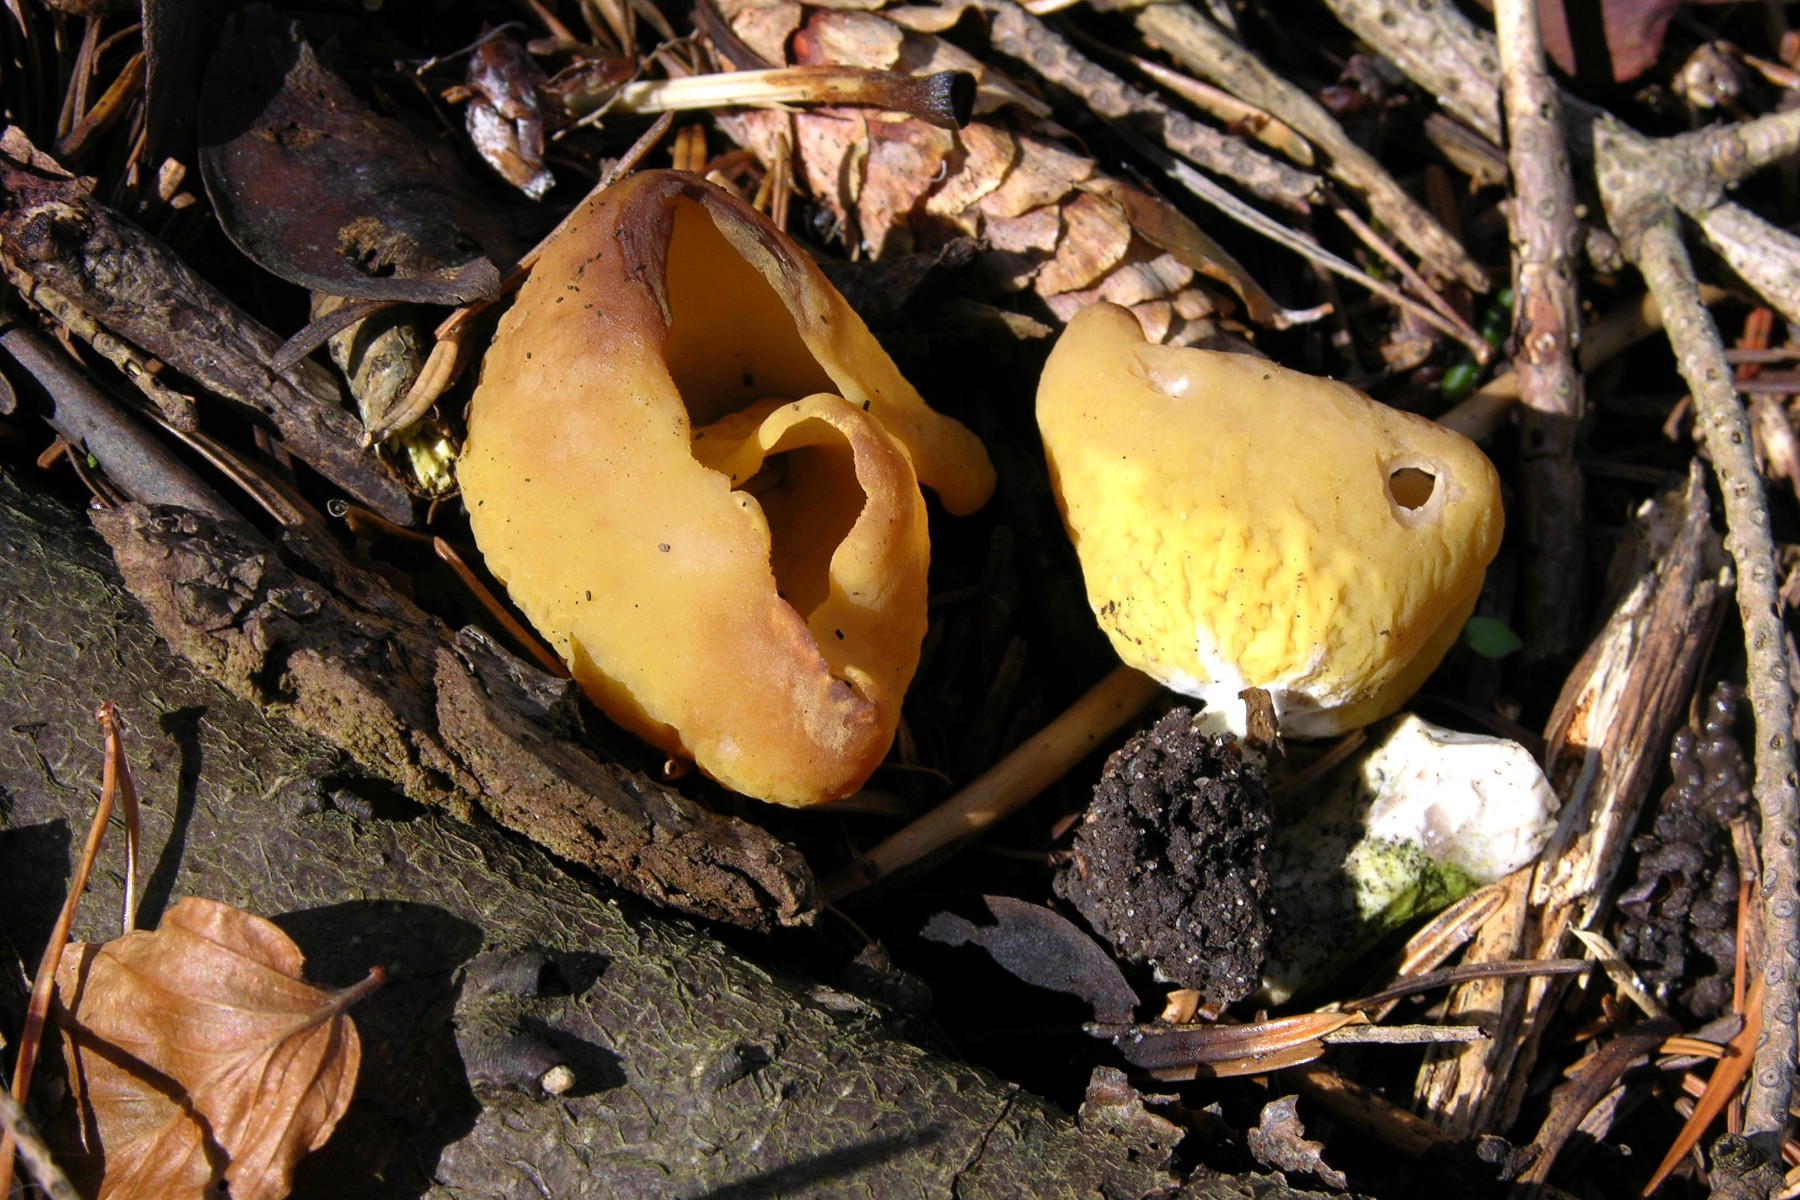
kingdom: Fungi
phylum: Ascomycota
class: Pezizomycetes
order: Pezizales
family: Otideaceae
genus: Otidea
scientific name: Otidea minor
